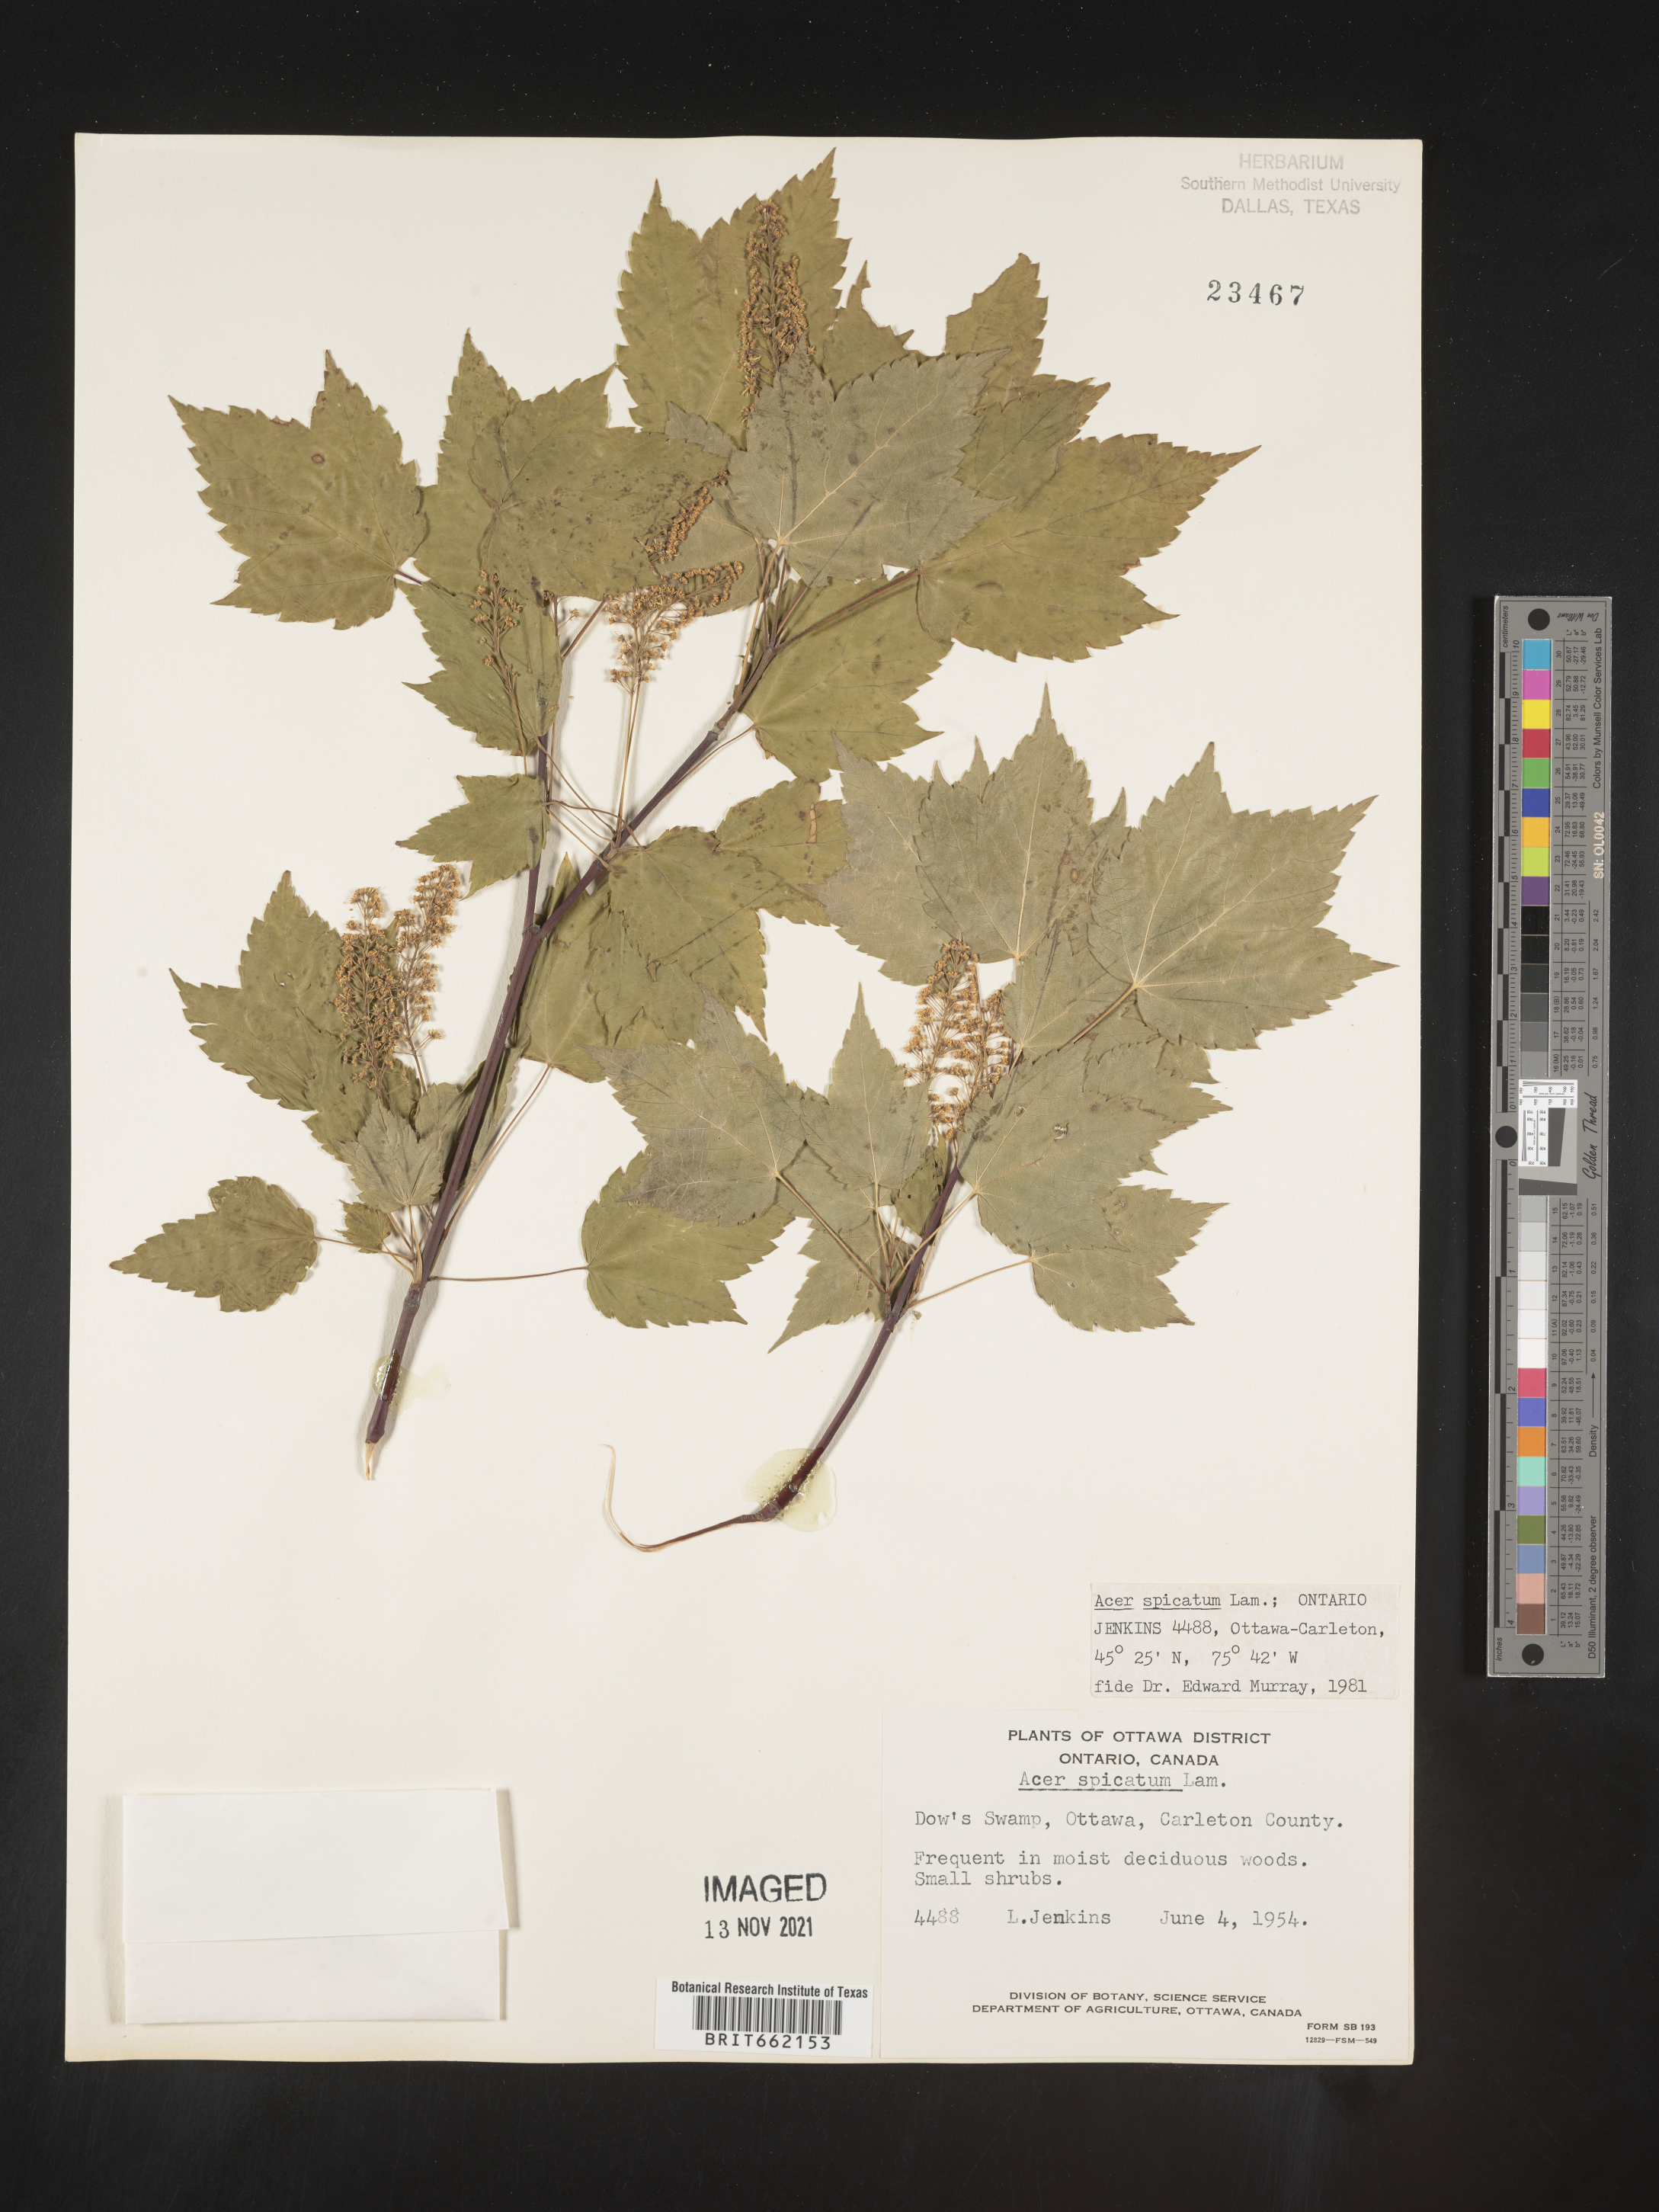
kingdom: Plantae
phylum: Tracheophyta
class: Magnoliopsida
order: Sapindales
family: Sapindaceae
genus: Acer
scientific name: Acer spicatum
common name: Mountain maple
